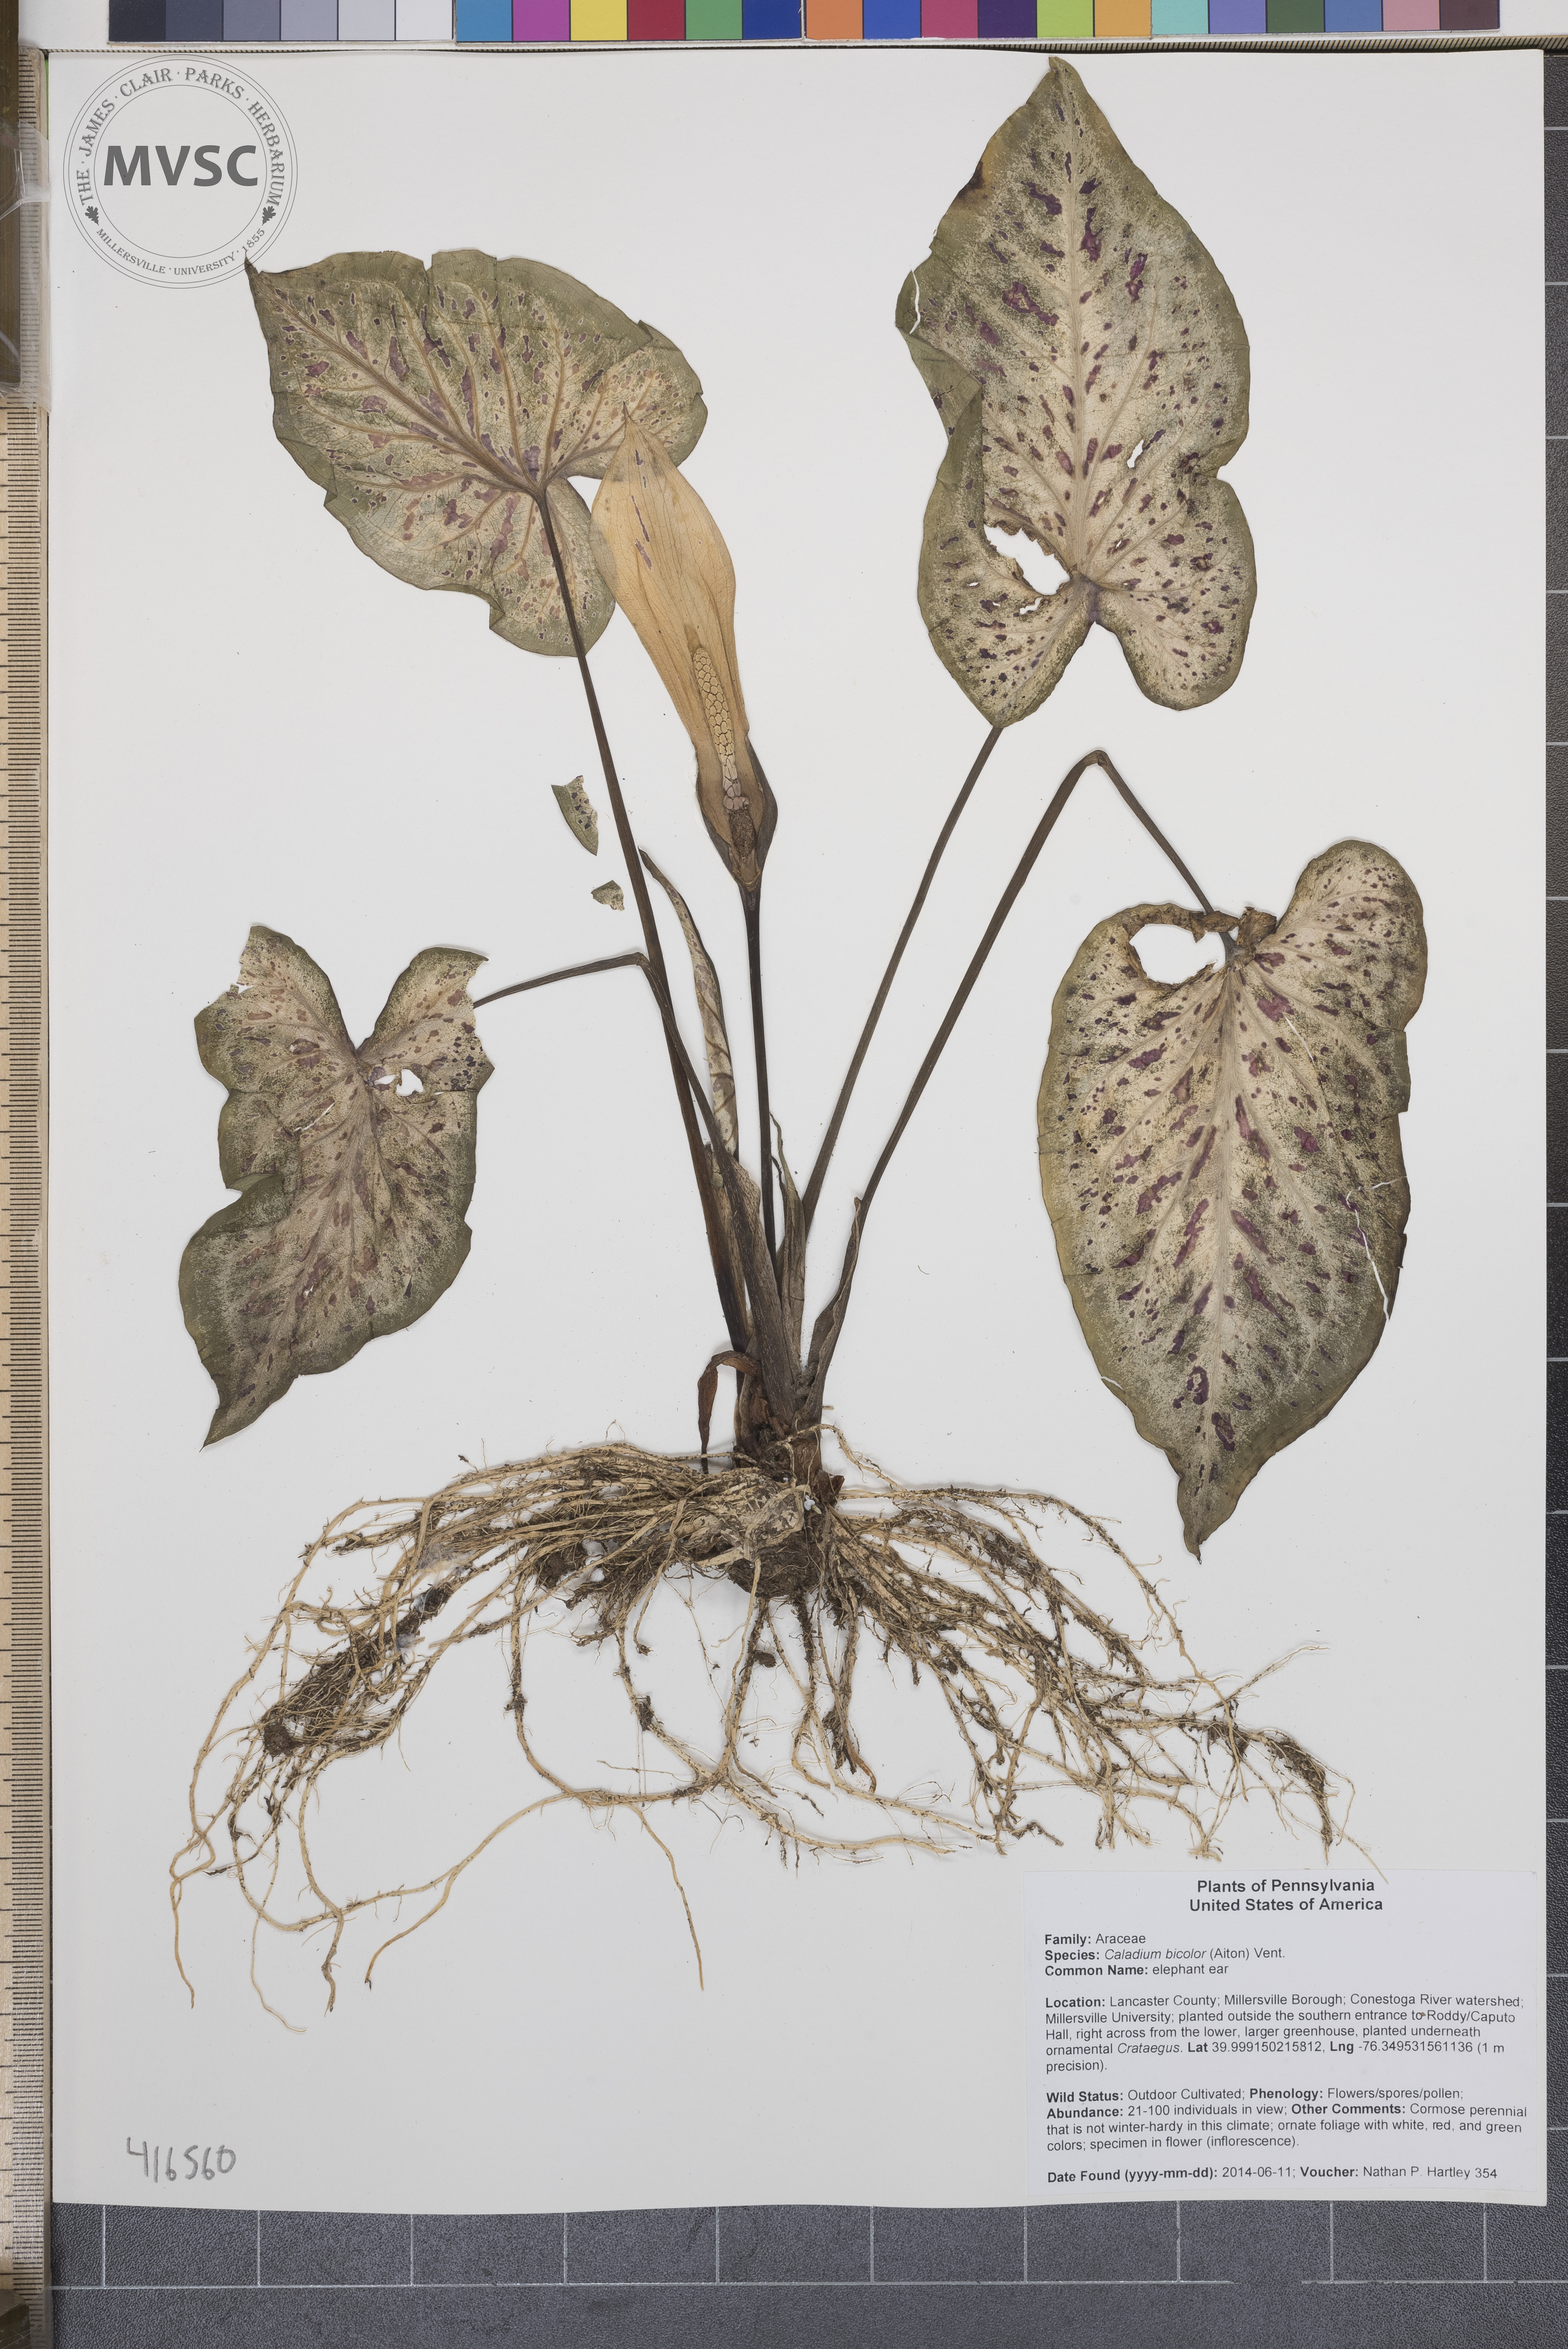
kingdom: Plantae
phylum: Tracheophyta
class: Liliopsida
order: Alismatales
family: Araceae
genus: Caladium
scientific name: Caladium bicolor
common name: elephant ear
